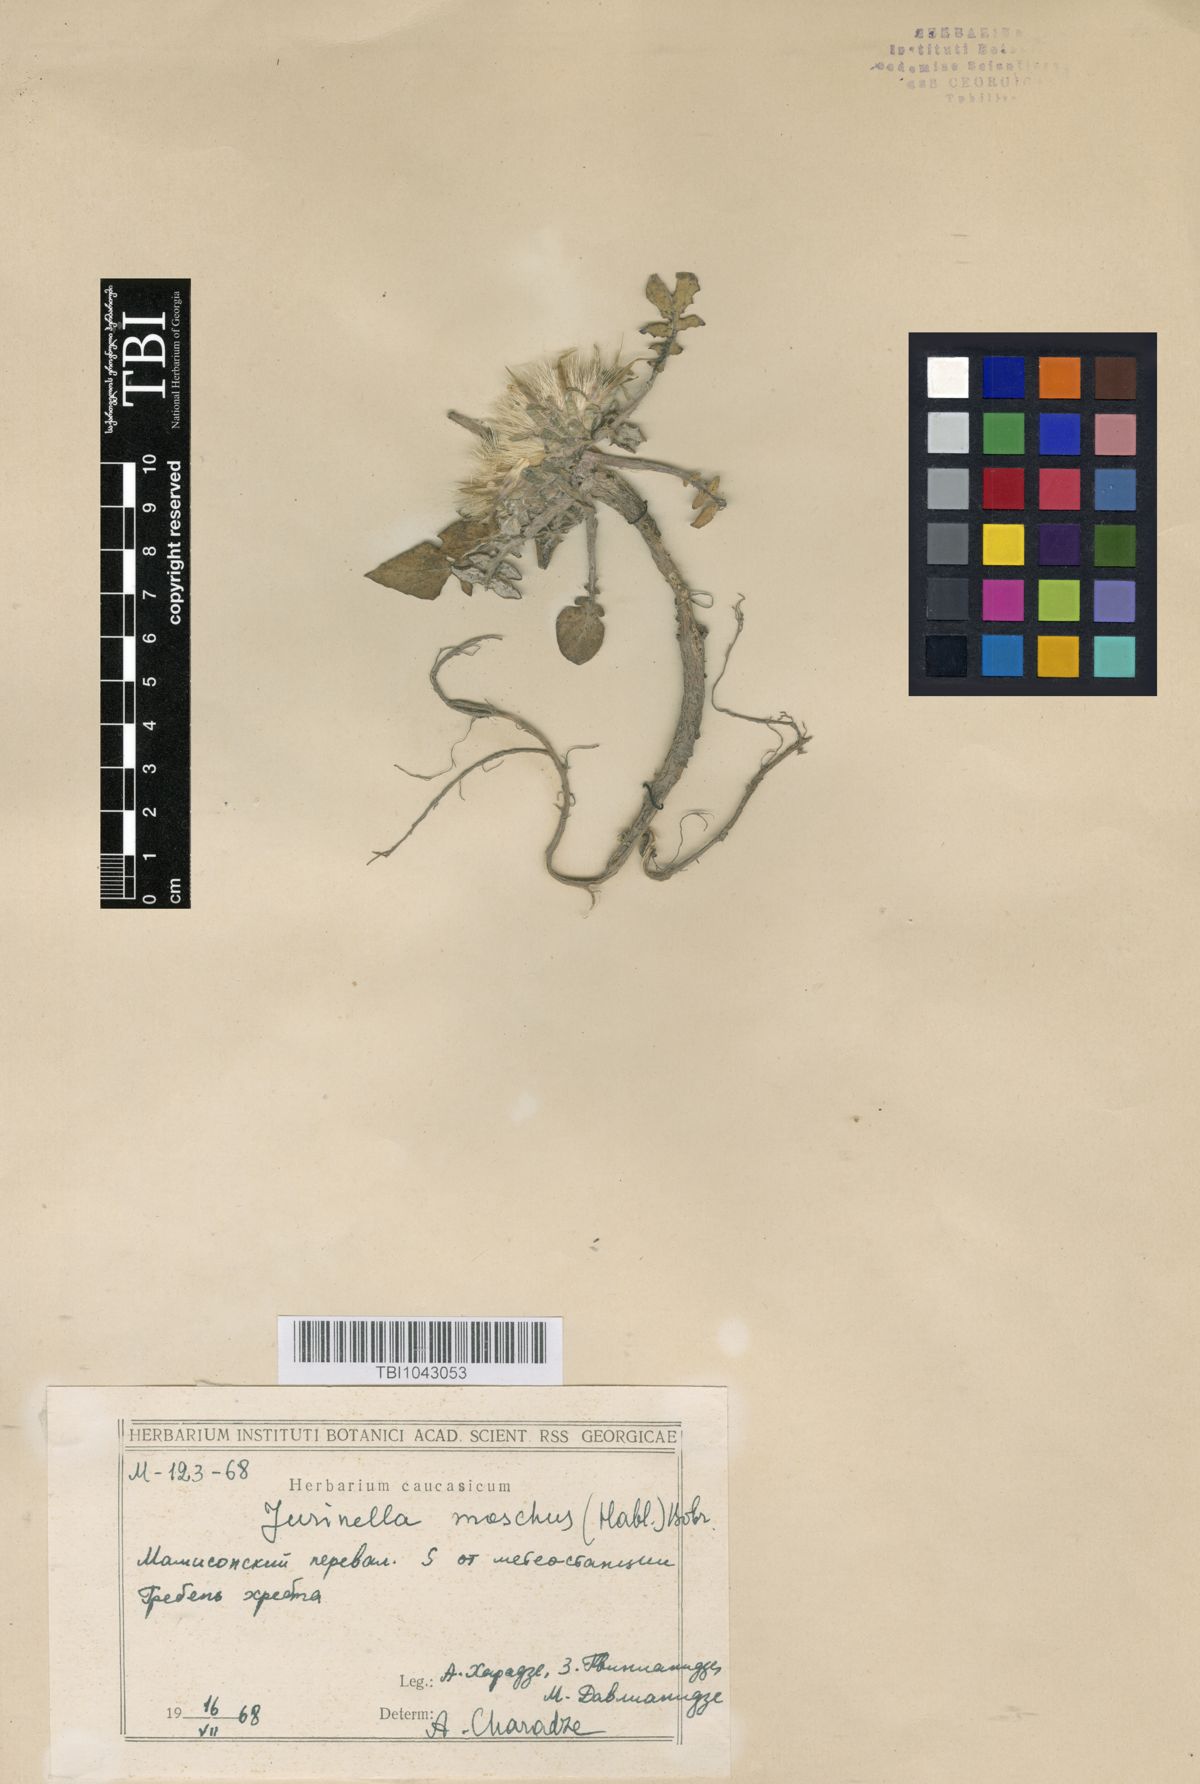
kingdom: Plantae
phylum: Tracheophyta
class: Magnoliopsida
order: Asterales
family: Asteraceae
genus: Jurinea
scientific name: Jurinea moschus
